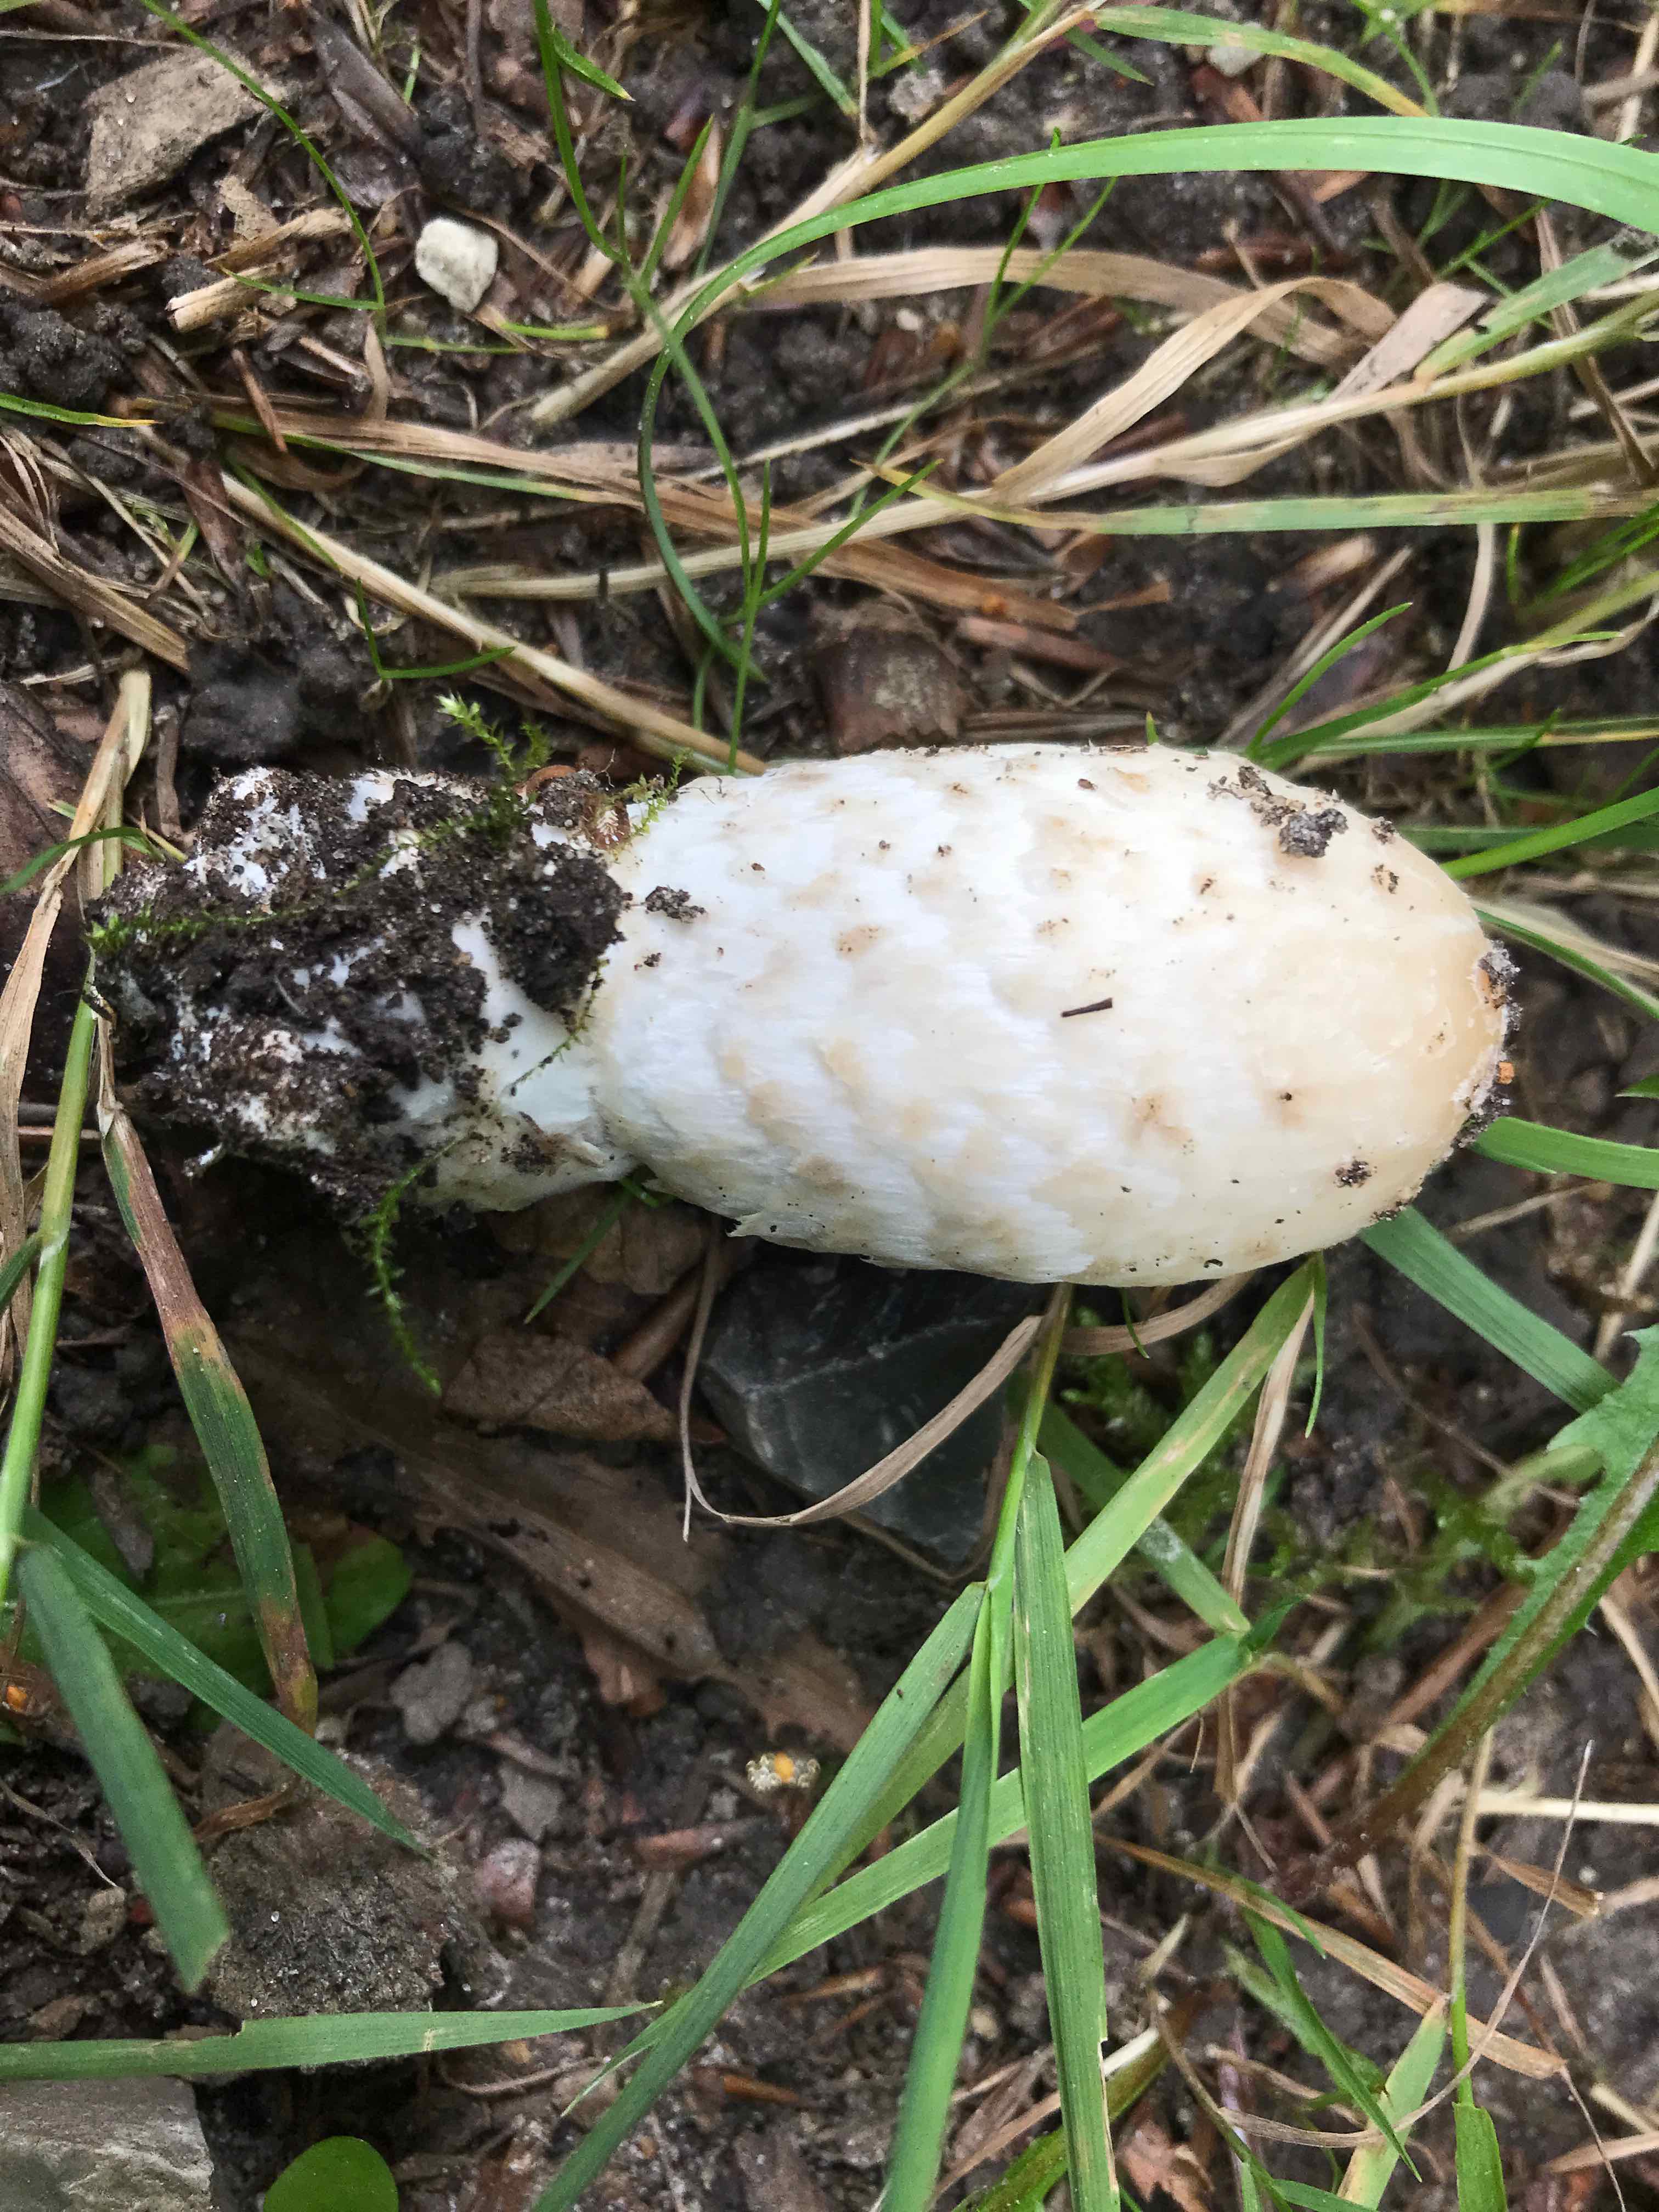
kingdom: Fungi
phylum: Basidiomycota
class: Agaricomycetes
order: Agaricales
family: Agaricaceae
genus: Coprinus
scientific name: Coprinus comatus
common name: stor parykhat
